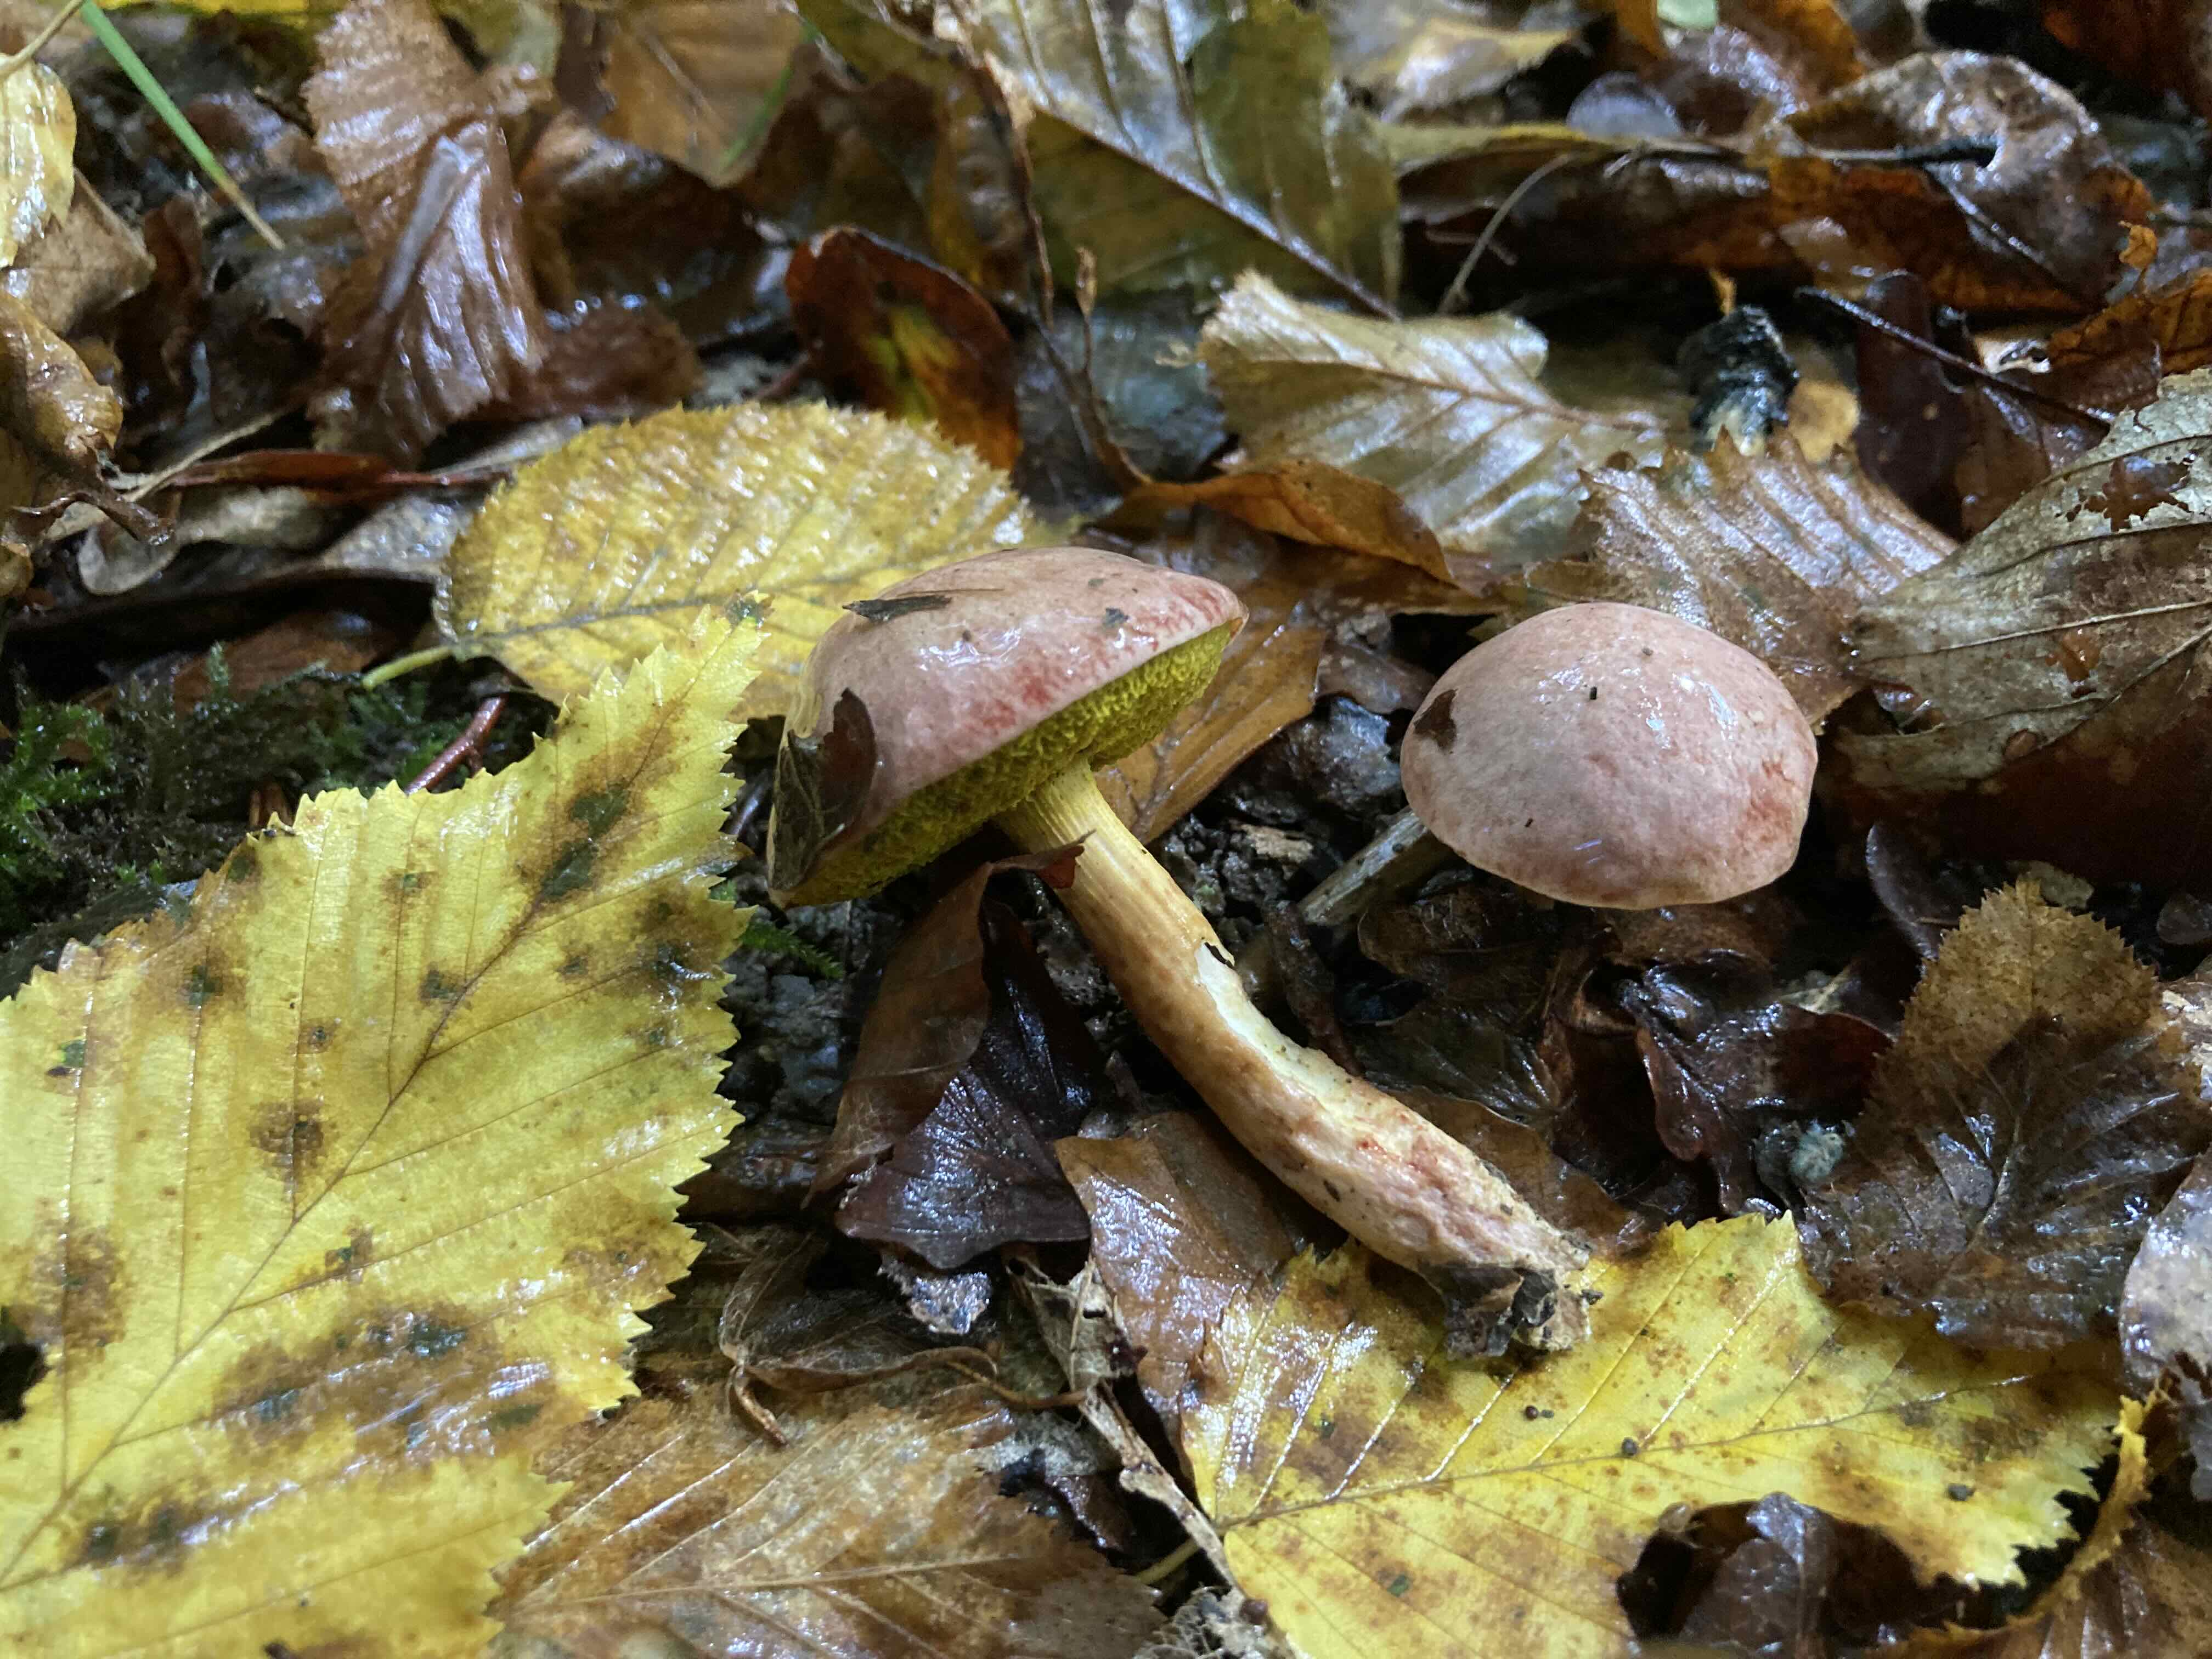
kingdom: Fungi
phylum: Basidiomycota
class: Agaricomycetes
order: Boletales
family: Boletaceae
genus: Aureoboletus
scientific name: Aureoboletus gentilis
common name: guldrørhat
